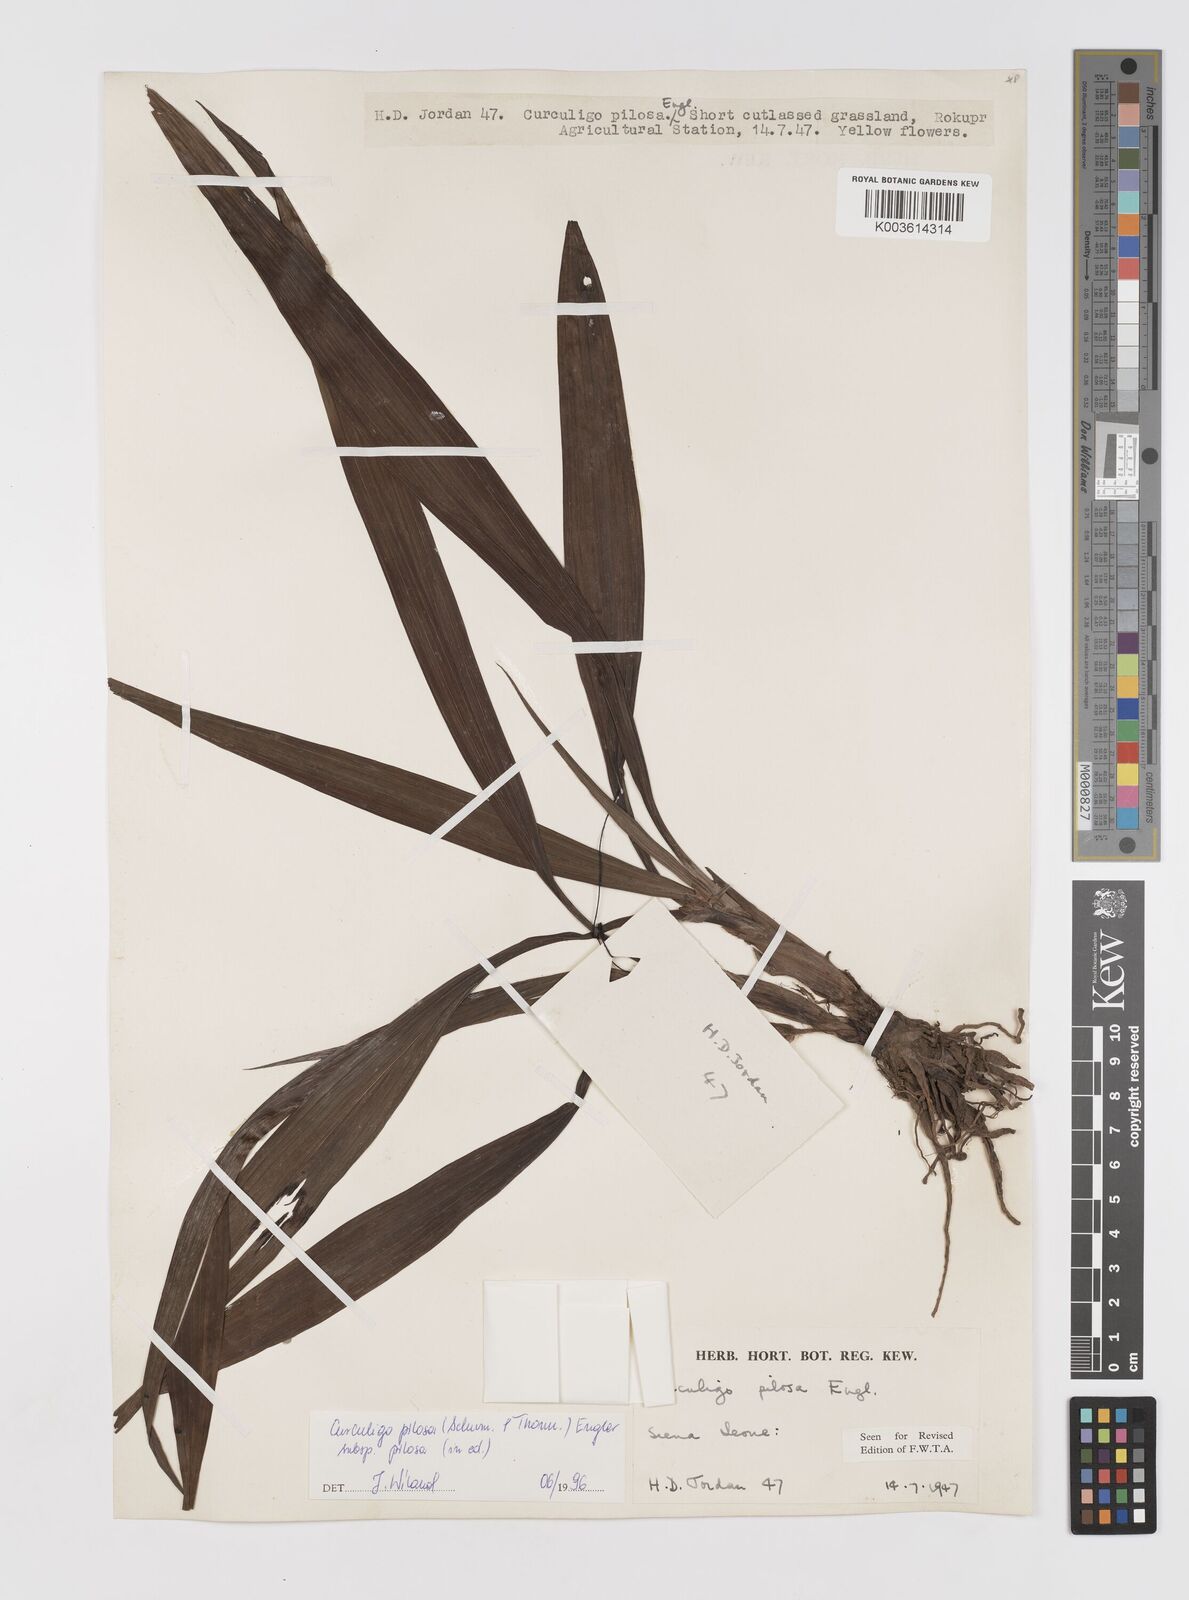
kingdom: Plantae
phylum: Tracheophyta
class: Liliopsida
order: Asparagales
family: Hypoxidaceae
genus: Curculigo
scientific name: Curculigo pilosa
